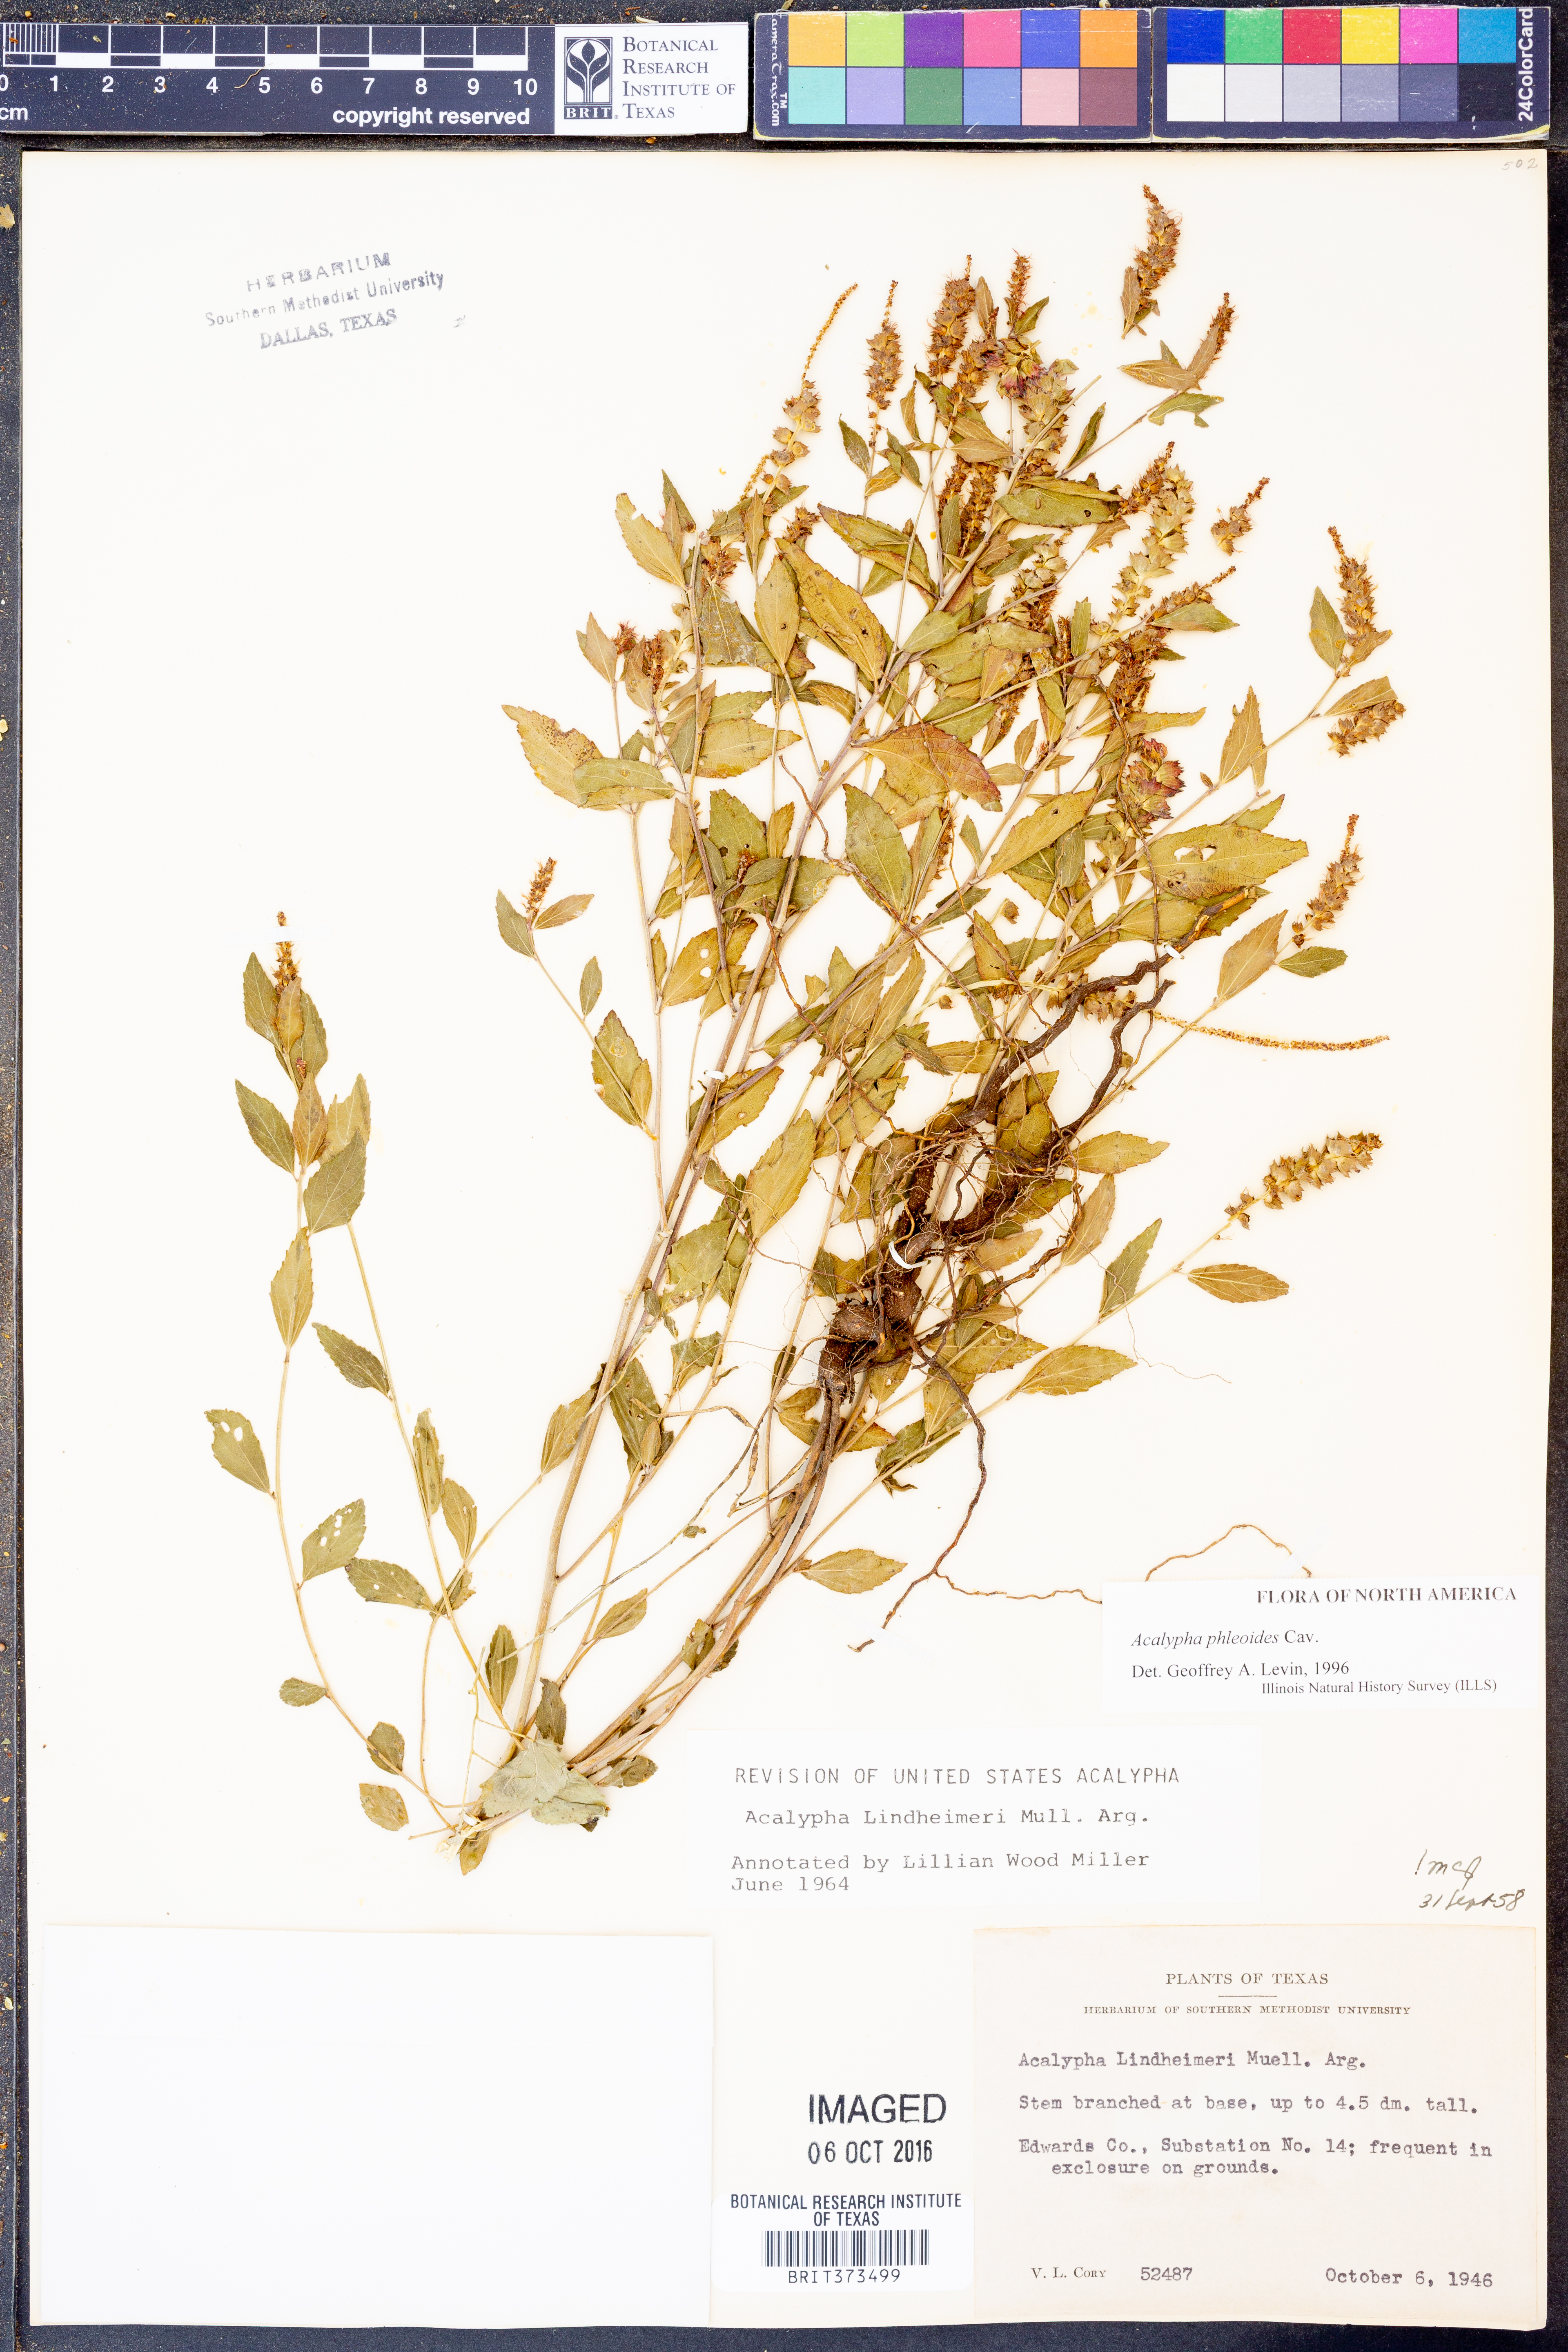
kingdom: Plantae
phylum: Tracheophyta
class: Magnoliopsida
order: Malpighiales
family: Euphorbiaceae
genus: Acalypha
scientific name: Acalypha phleoides
